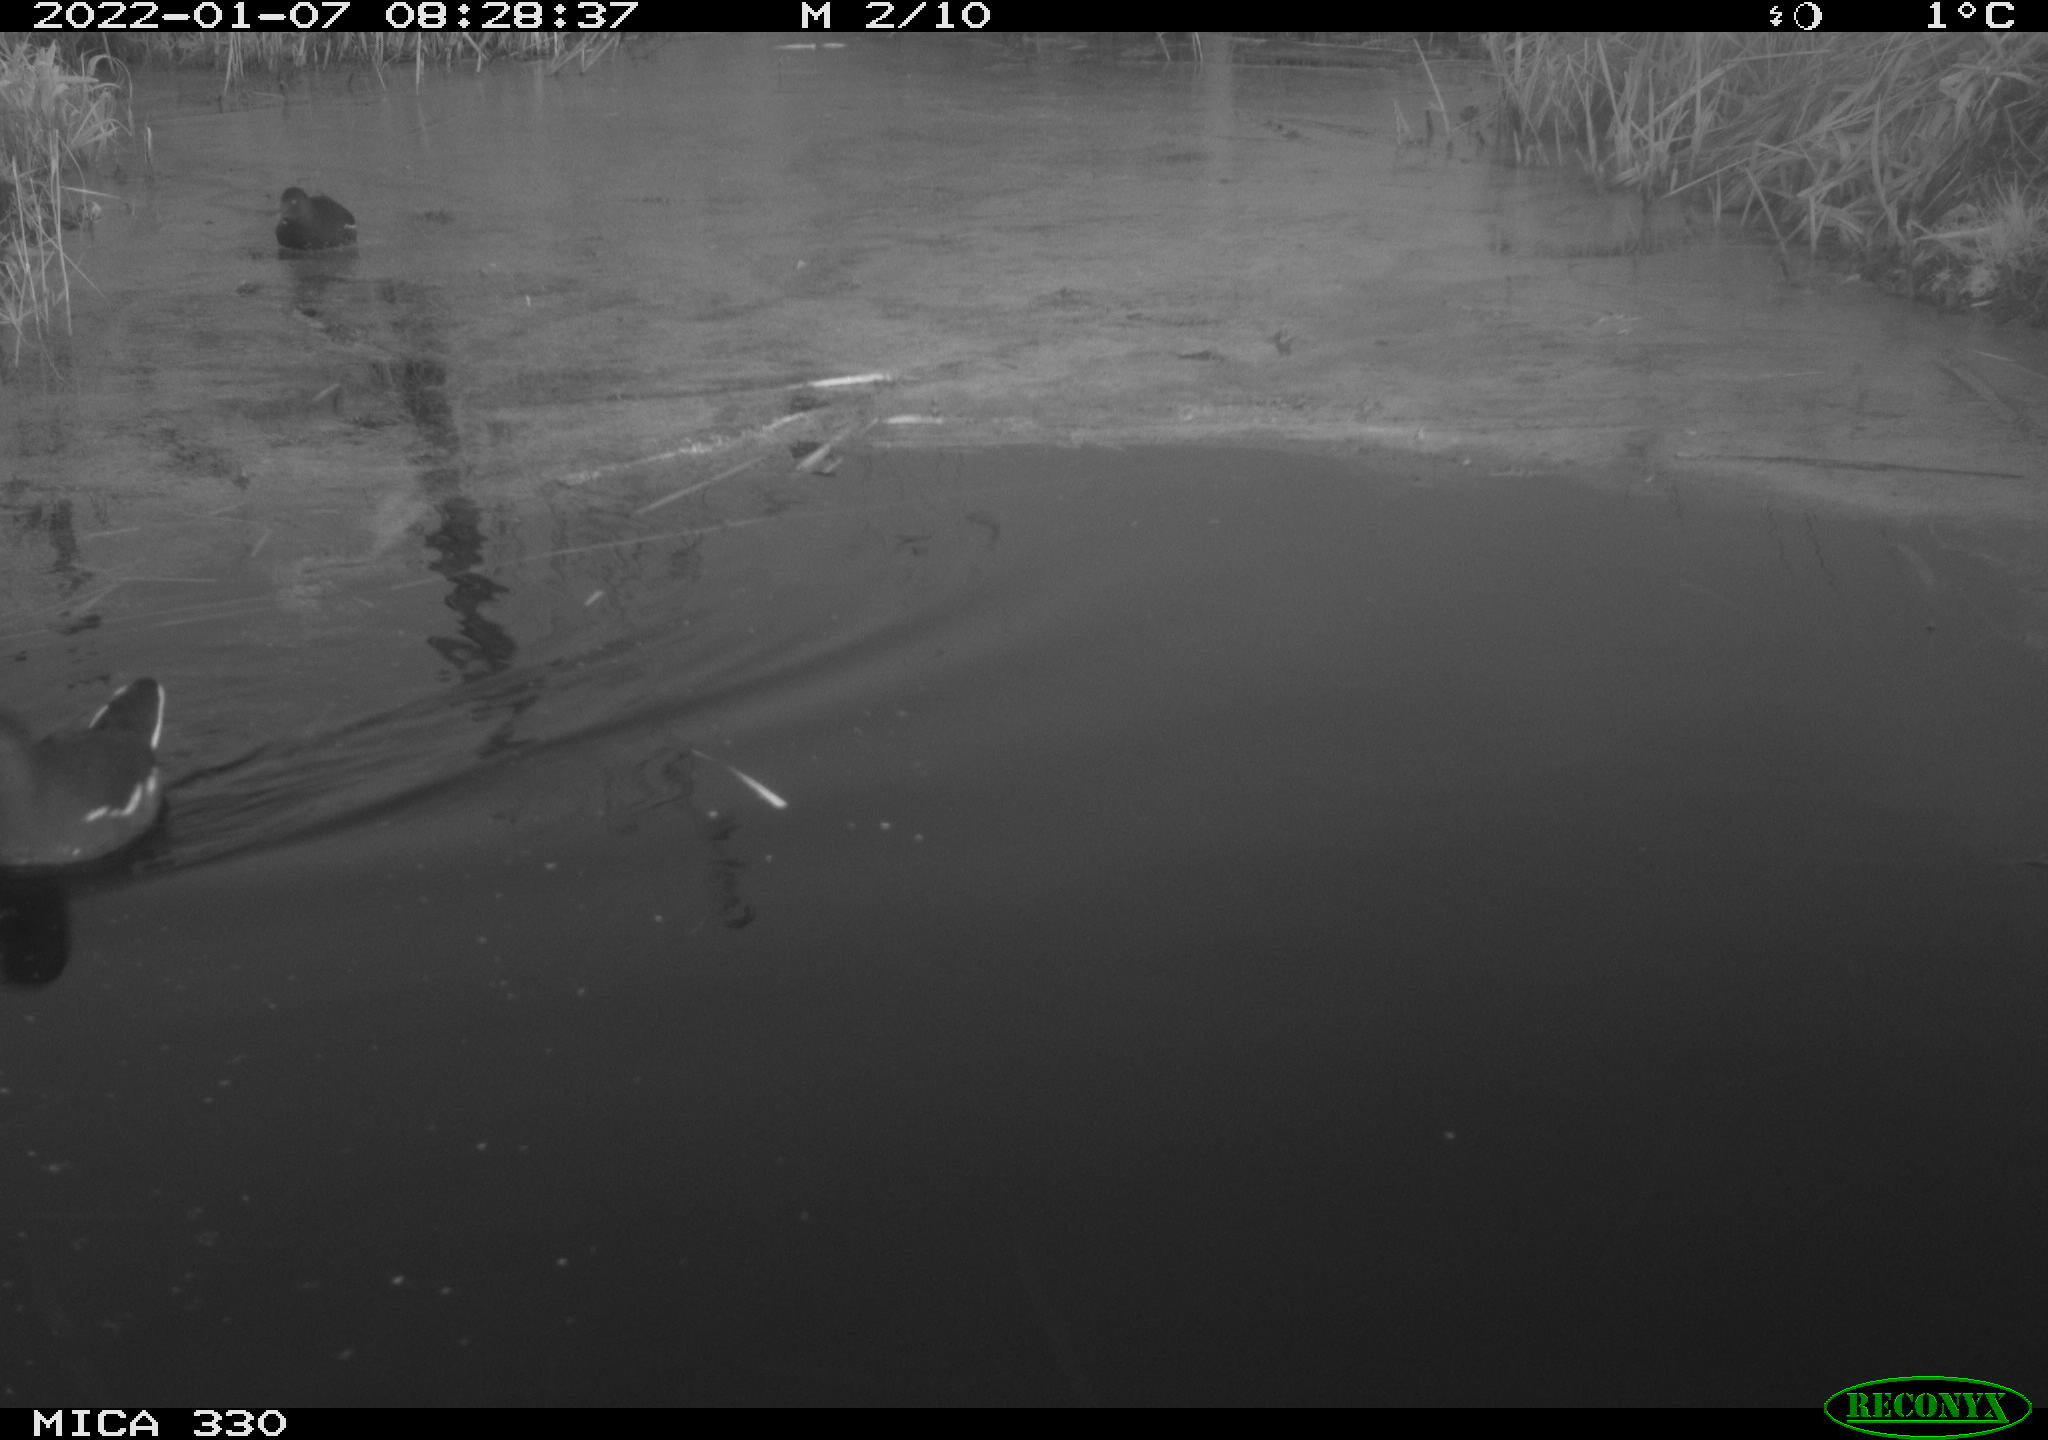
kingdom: Animalia
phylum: Chordata
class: Aves
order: Gruiformes
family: Rallidae
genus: Gallinula
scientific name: Gallinula chloropus
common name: Common moorhen
